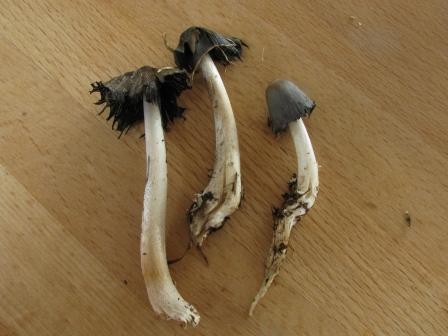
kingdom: Fungi
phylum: Basidiomycota
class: Agaricomycetes
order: Agaricales
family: Psathyrellaceae
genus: Coprinopsis
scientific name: Coprinopsis cinerea
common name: mødding-blækhat
